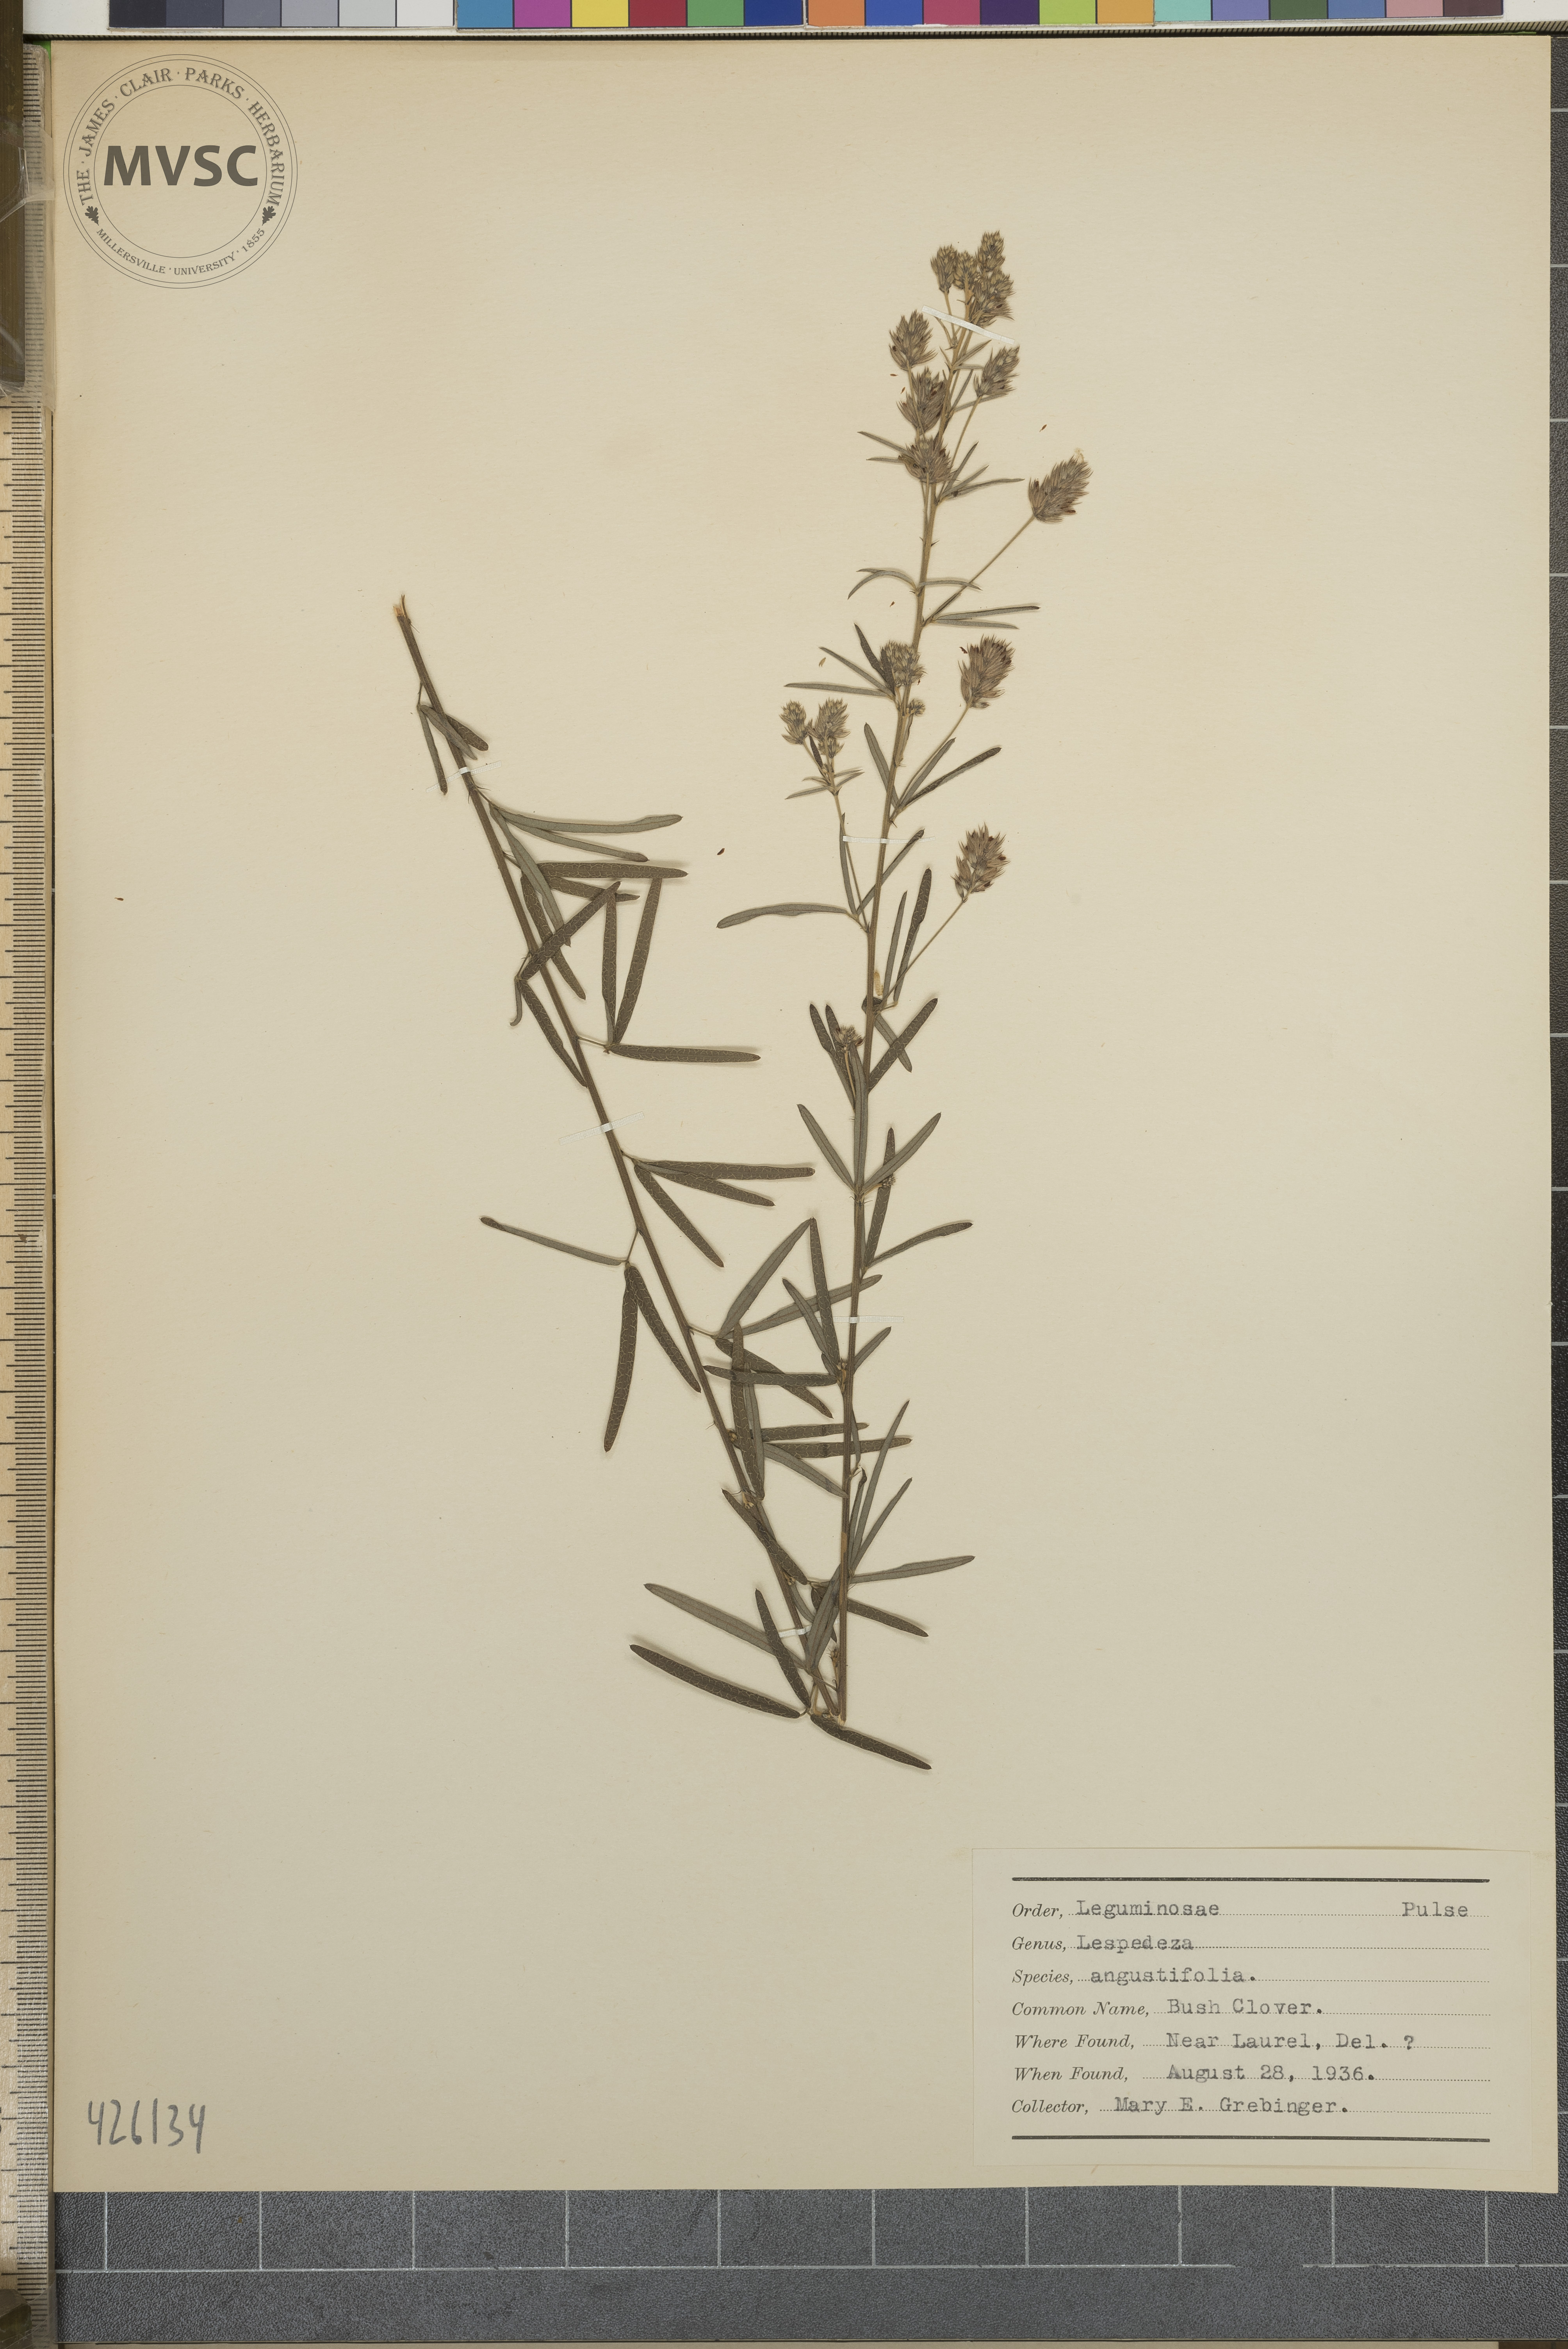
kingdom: Plantae
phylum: Tracheophyta
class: Magnoliopsida
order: Fabales
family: Fabaceae
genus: Lespedeza
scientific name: Lespedeza angustifolia
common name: Bush clover
